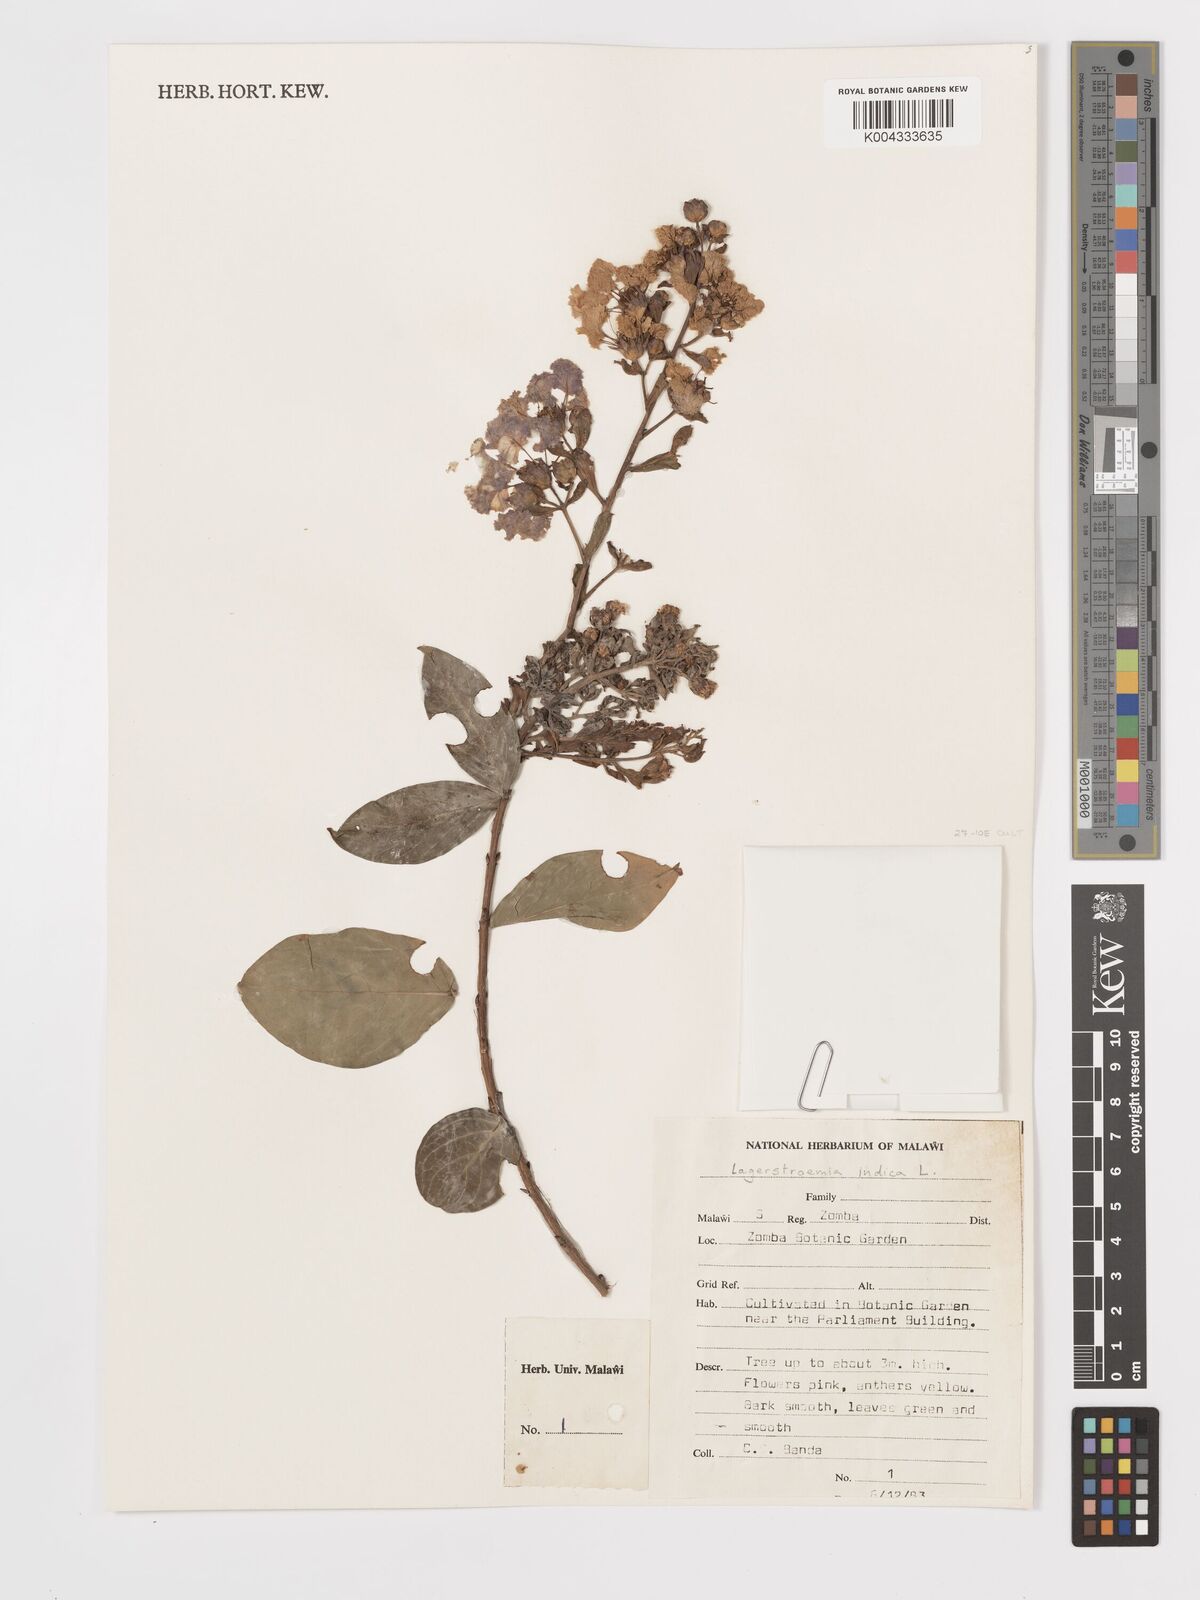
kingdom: Plantae
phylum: Tracheophyta
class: Magnoliopsida
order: Myrtales
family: Lythraceae
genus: Lagerstroemia
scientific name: Lagerstroemia indica
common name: Crape-myrtle
